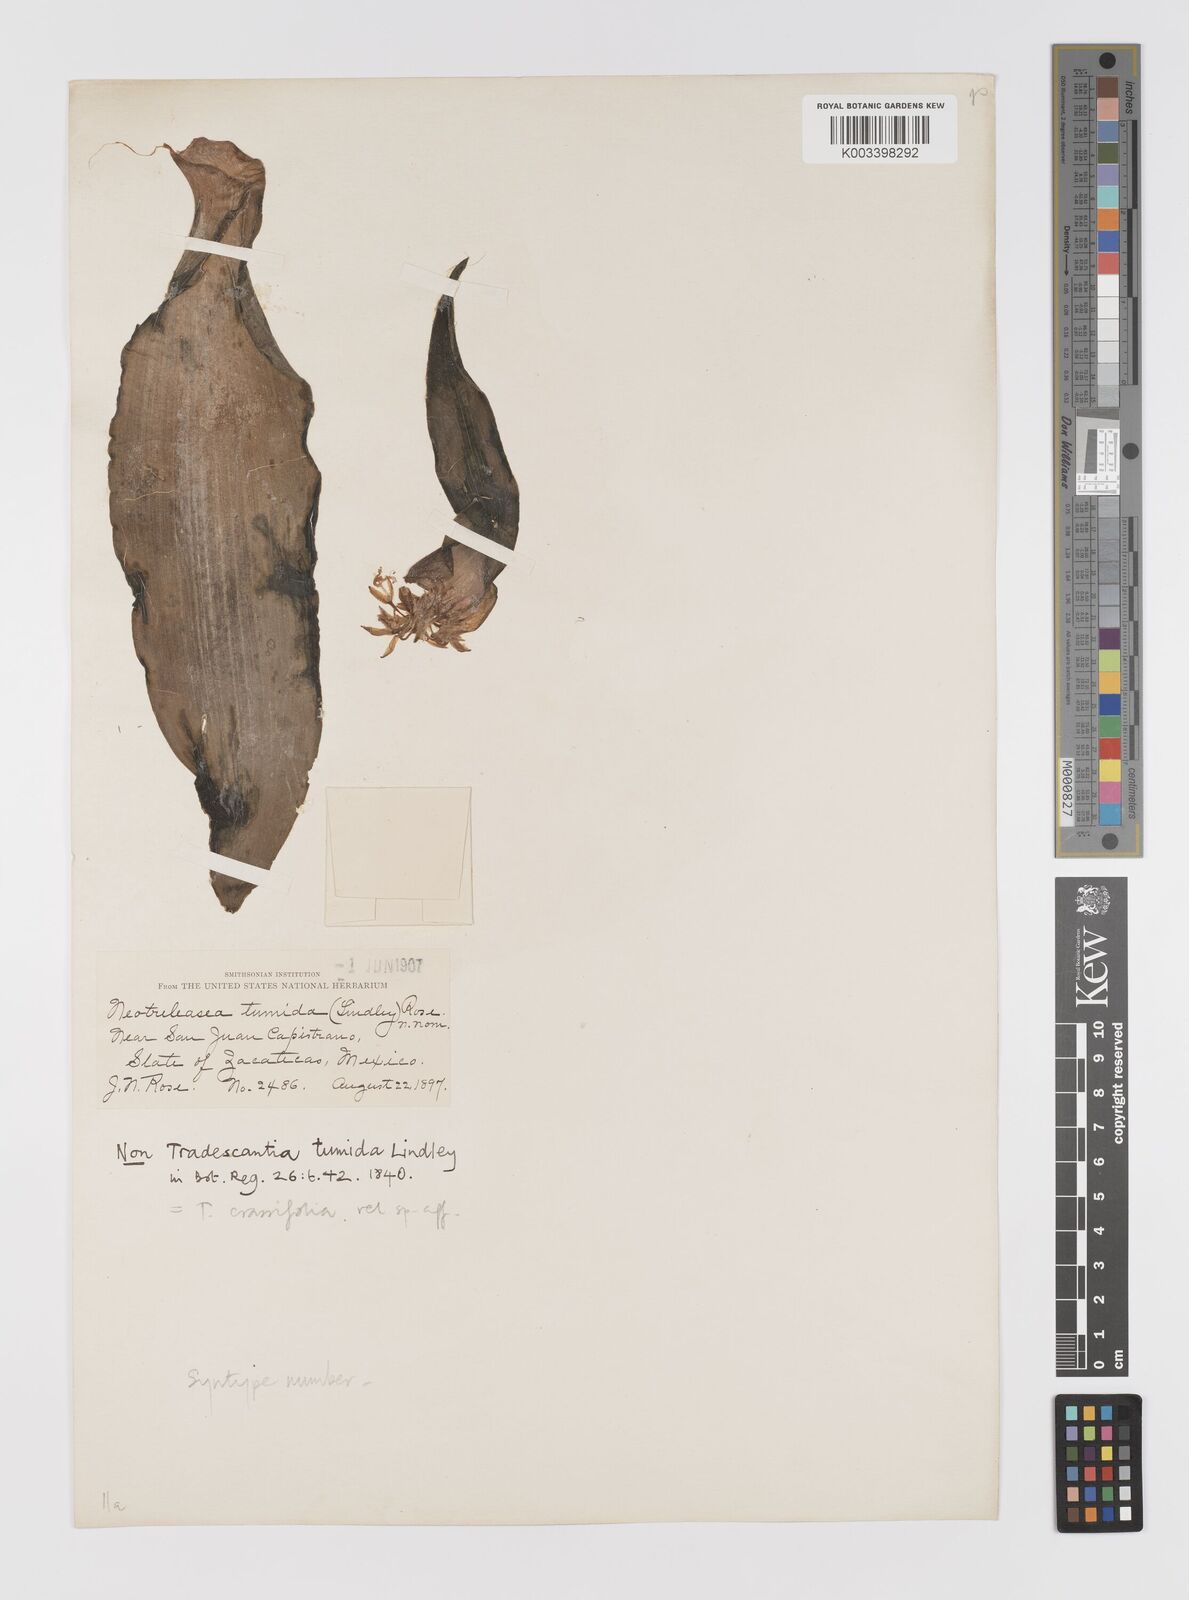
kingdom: Plantae
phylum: Tracheophyta
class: Liliopsida
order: Commelinales
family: Commelinaceae
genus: Tradescantia
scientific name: Tradescantia andrieuxii
